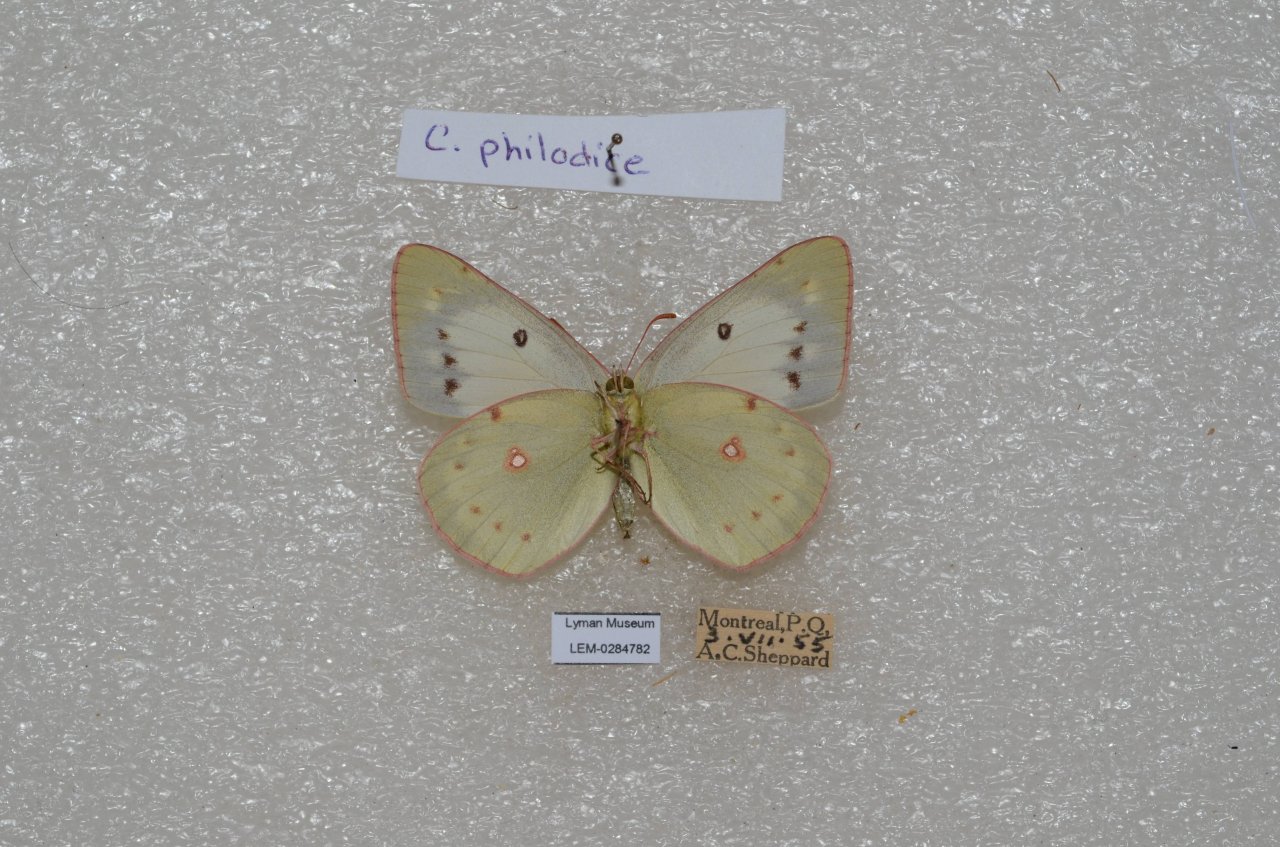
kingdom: Animalia
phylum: Arthropoda
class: Insecta
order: Lepidoptera
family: Pieridae
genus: Colias
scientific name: Colias philodice
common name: Clouded Sulphur
